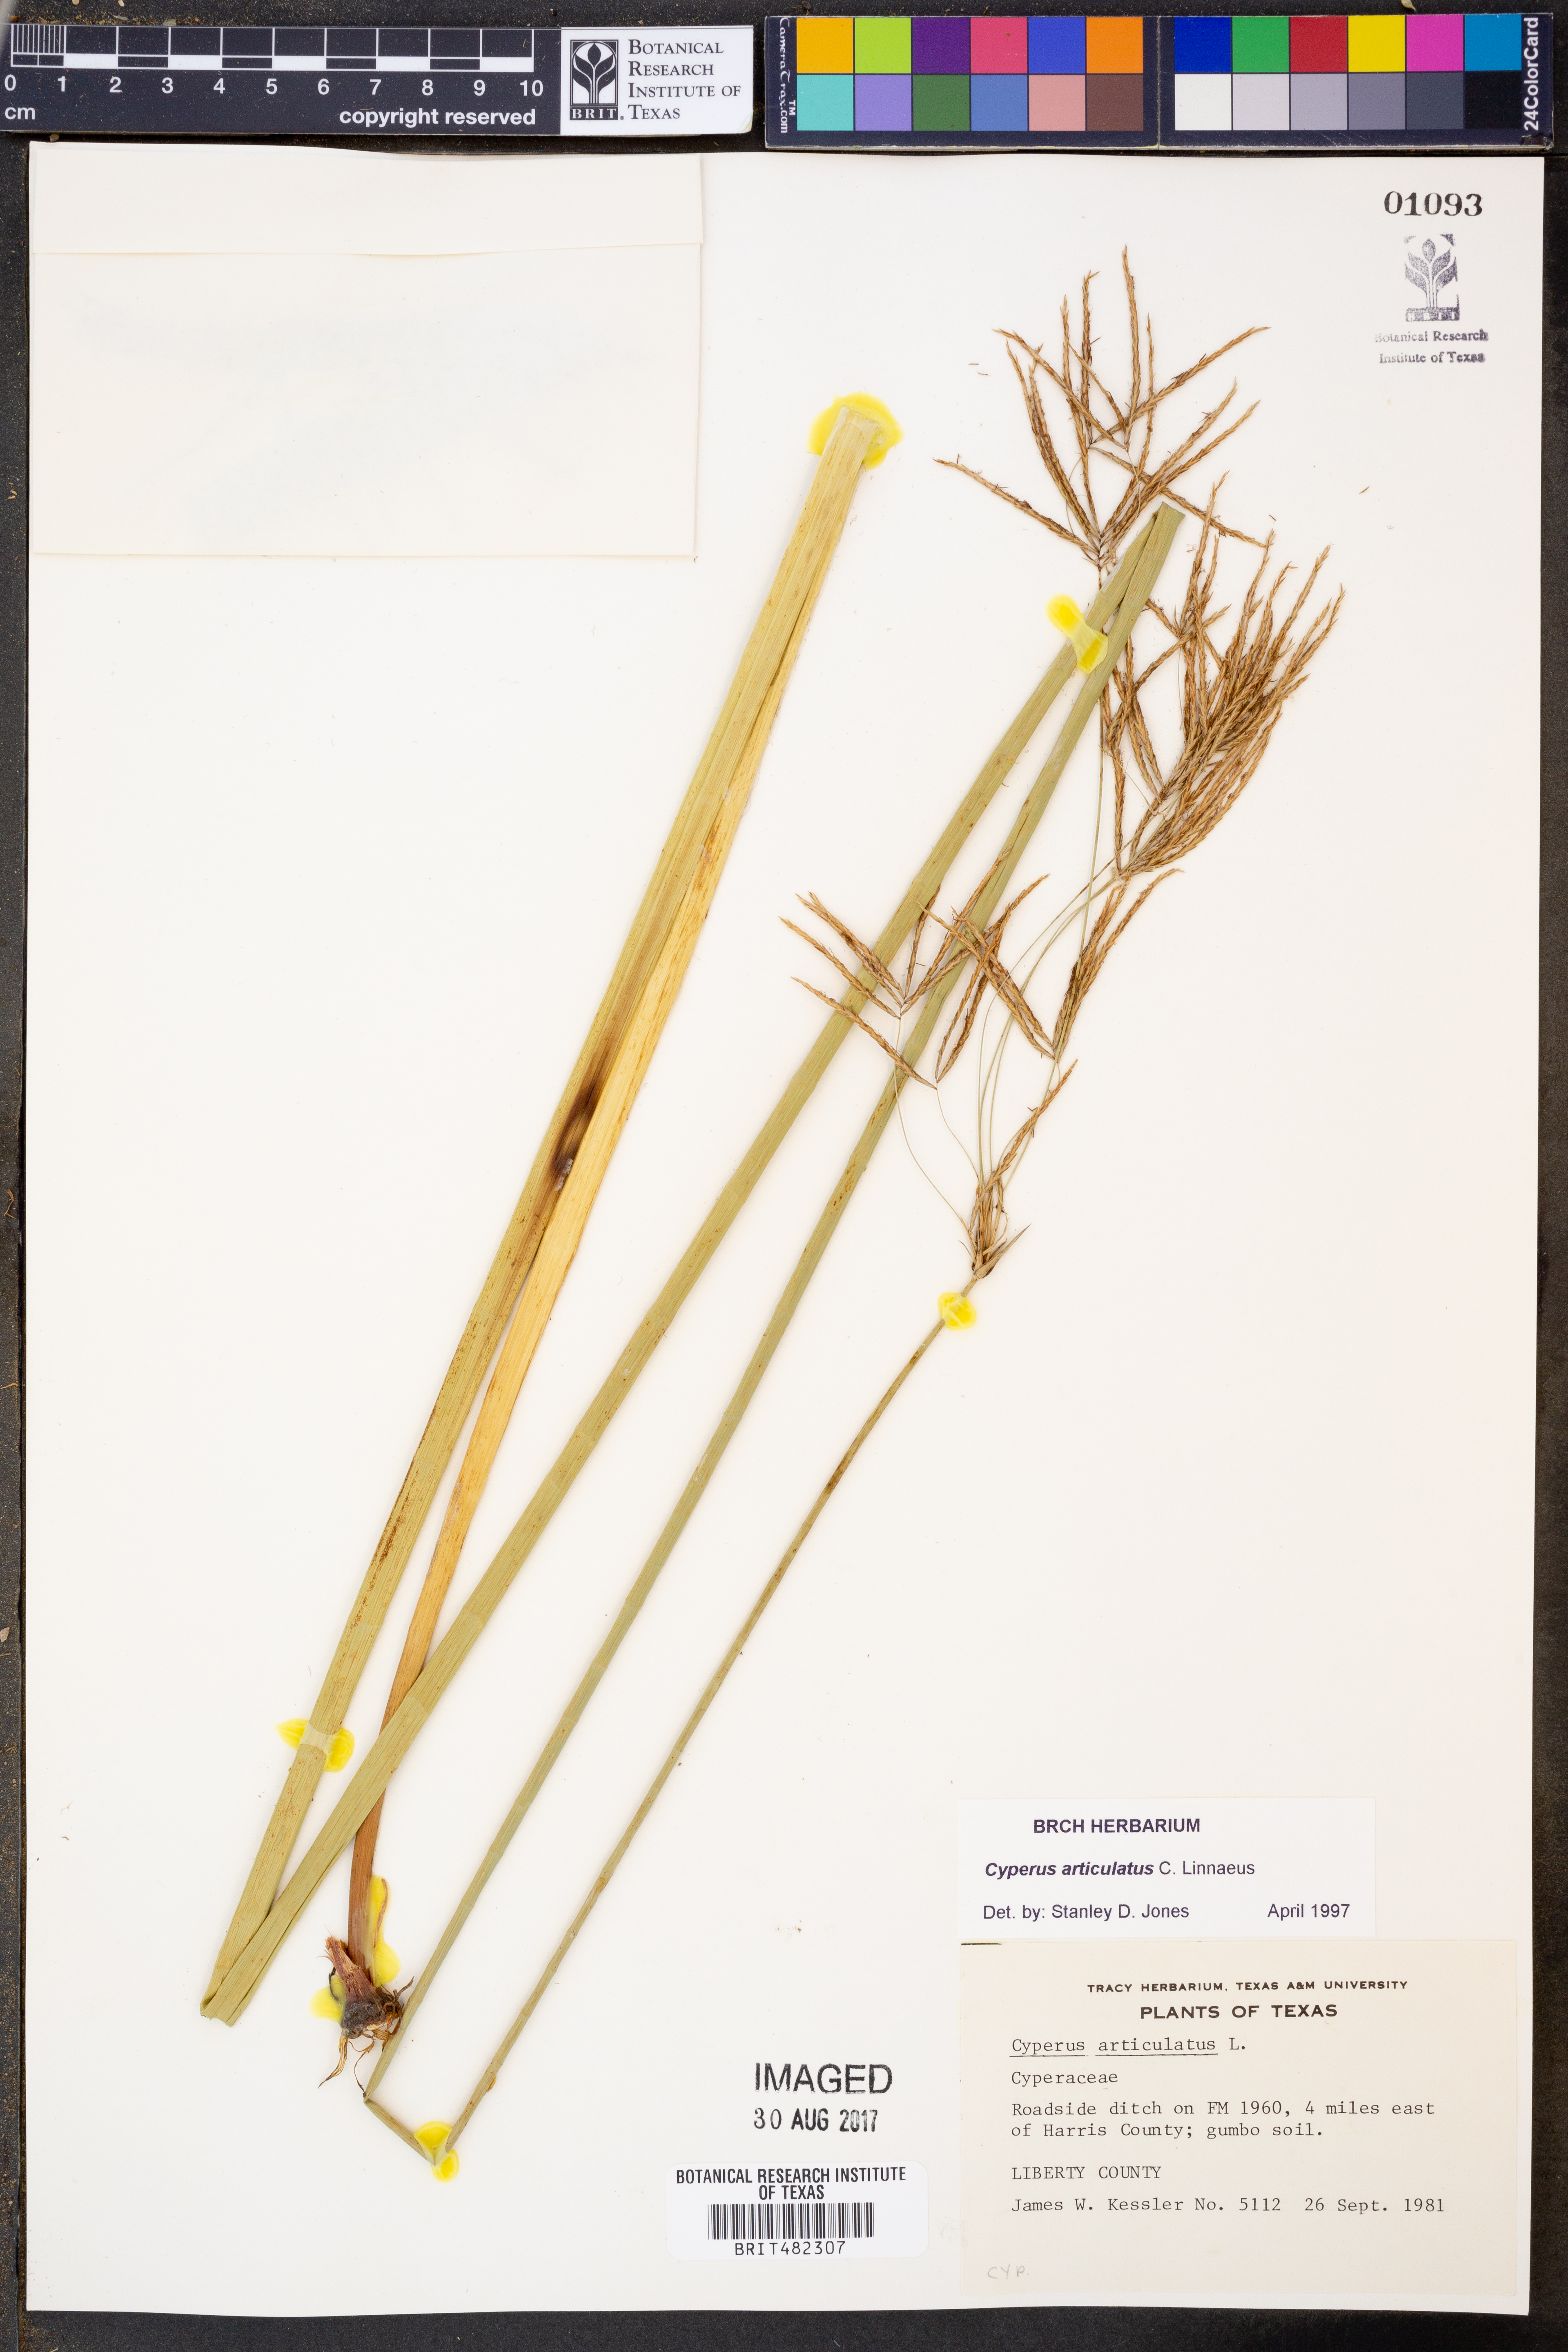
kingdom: Plantae
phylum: Tracheophyta
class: Liliopsida
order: Poales
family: Cyperaceae
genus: Cyperus
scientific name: Cyperus articulatus
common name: Jointed flatsedge
